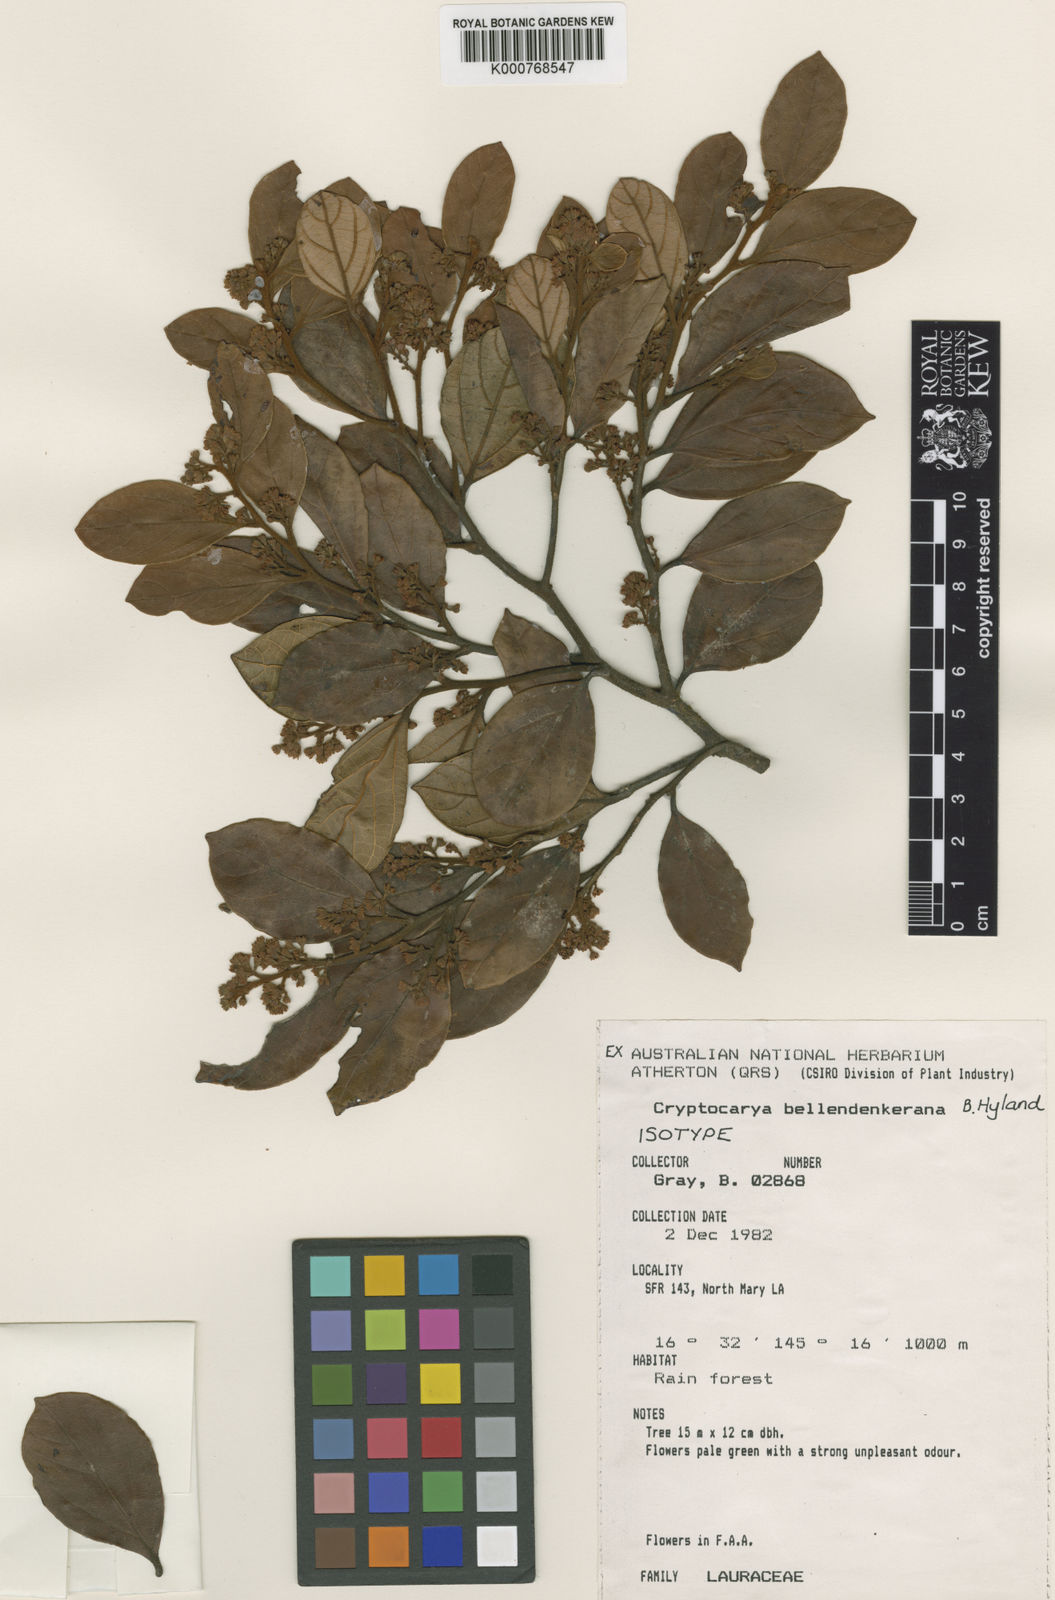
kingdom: Plantae
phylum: Tracheophyta
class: Magnoliopsida
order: Laurales
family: Lauraceae
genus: Cryptocarya
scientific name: Cryptocarya bellendenkerana
